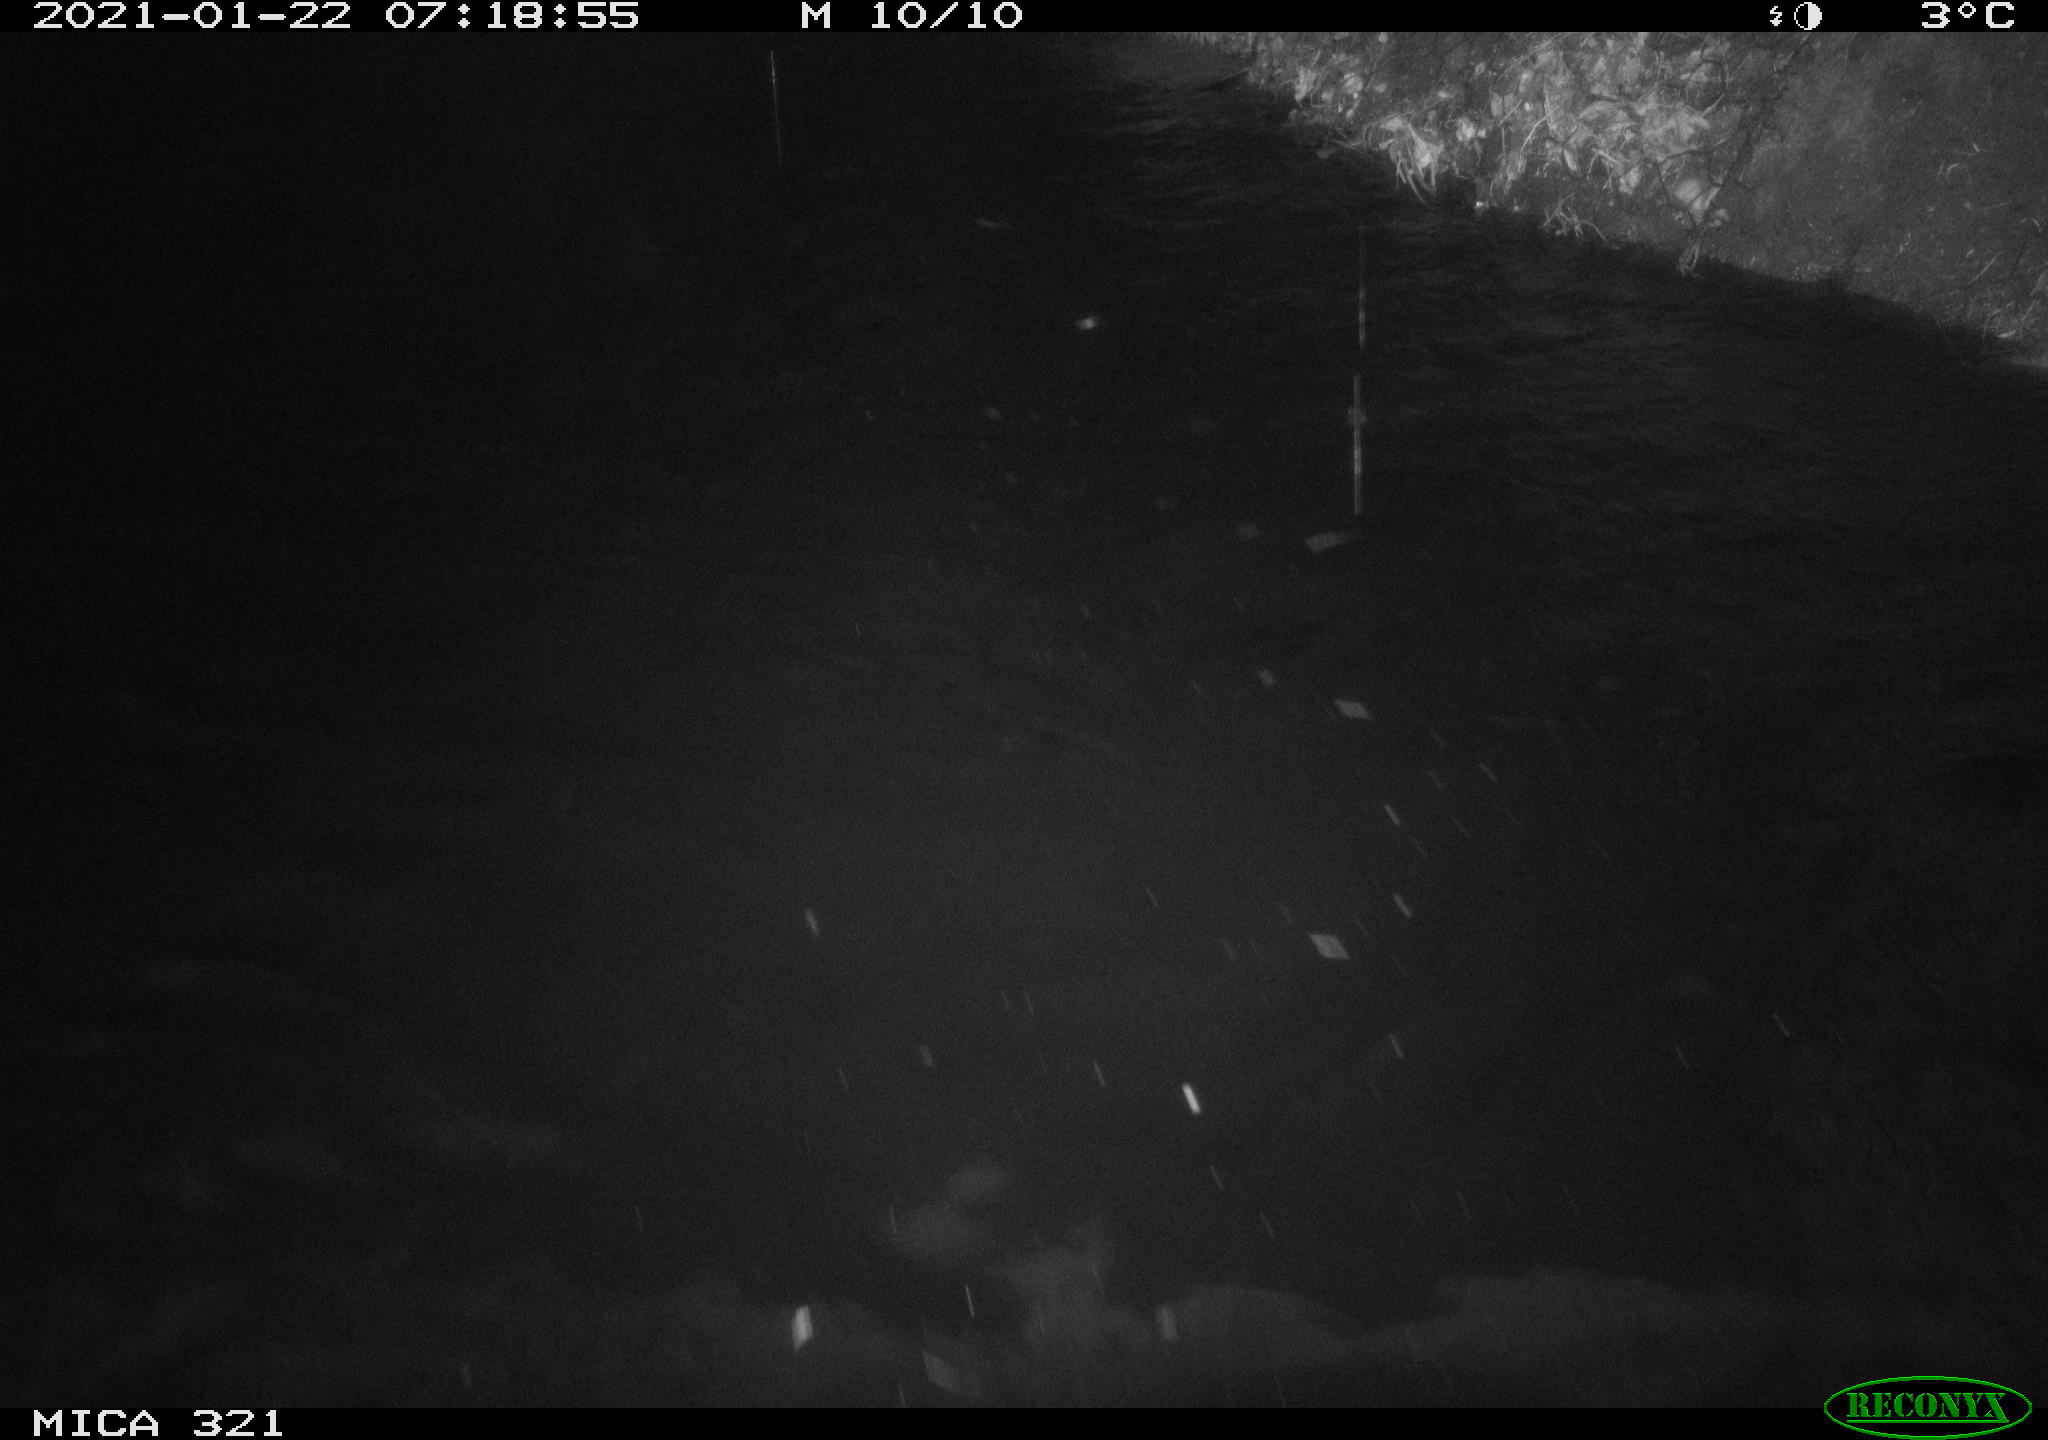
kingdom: Animalia
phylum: Chordata
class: Aves
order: Anseriformes
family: Anatidae
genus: Anas
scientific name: Anas platyrhynchos
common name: Mallard
